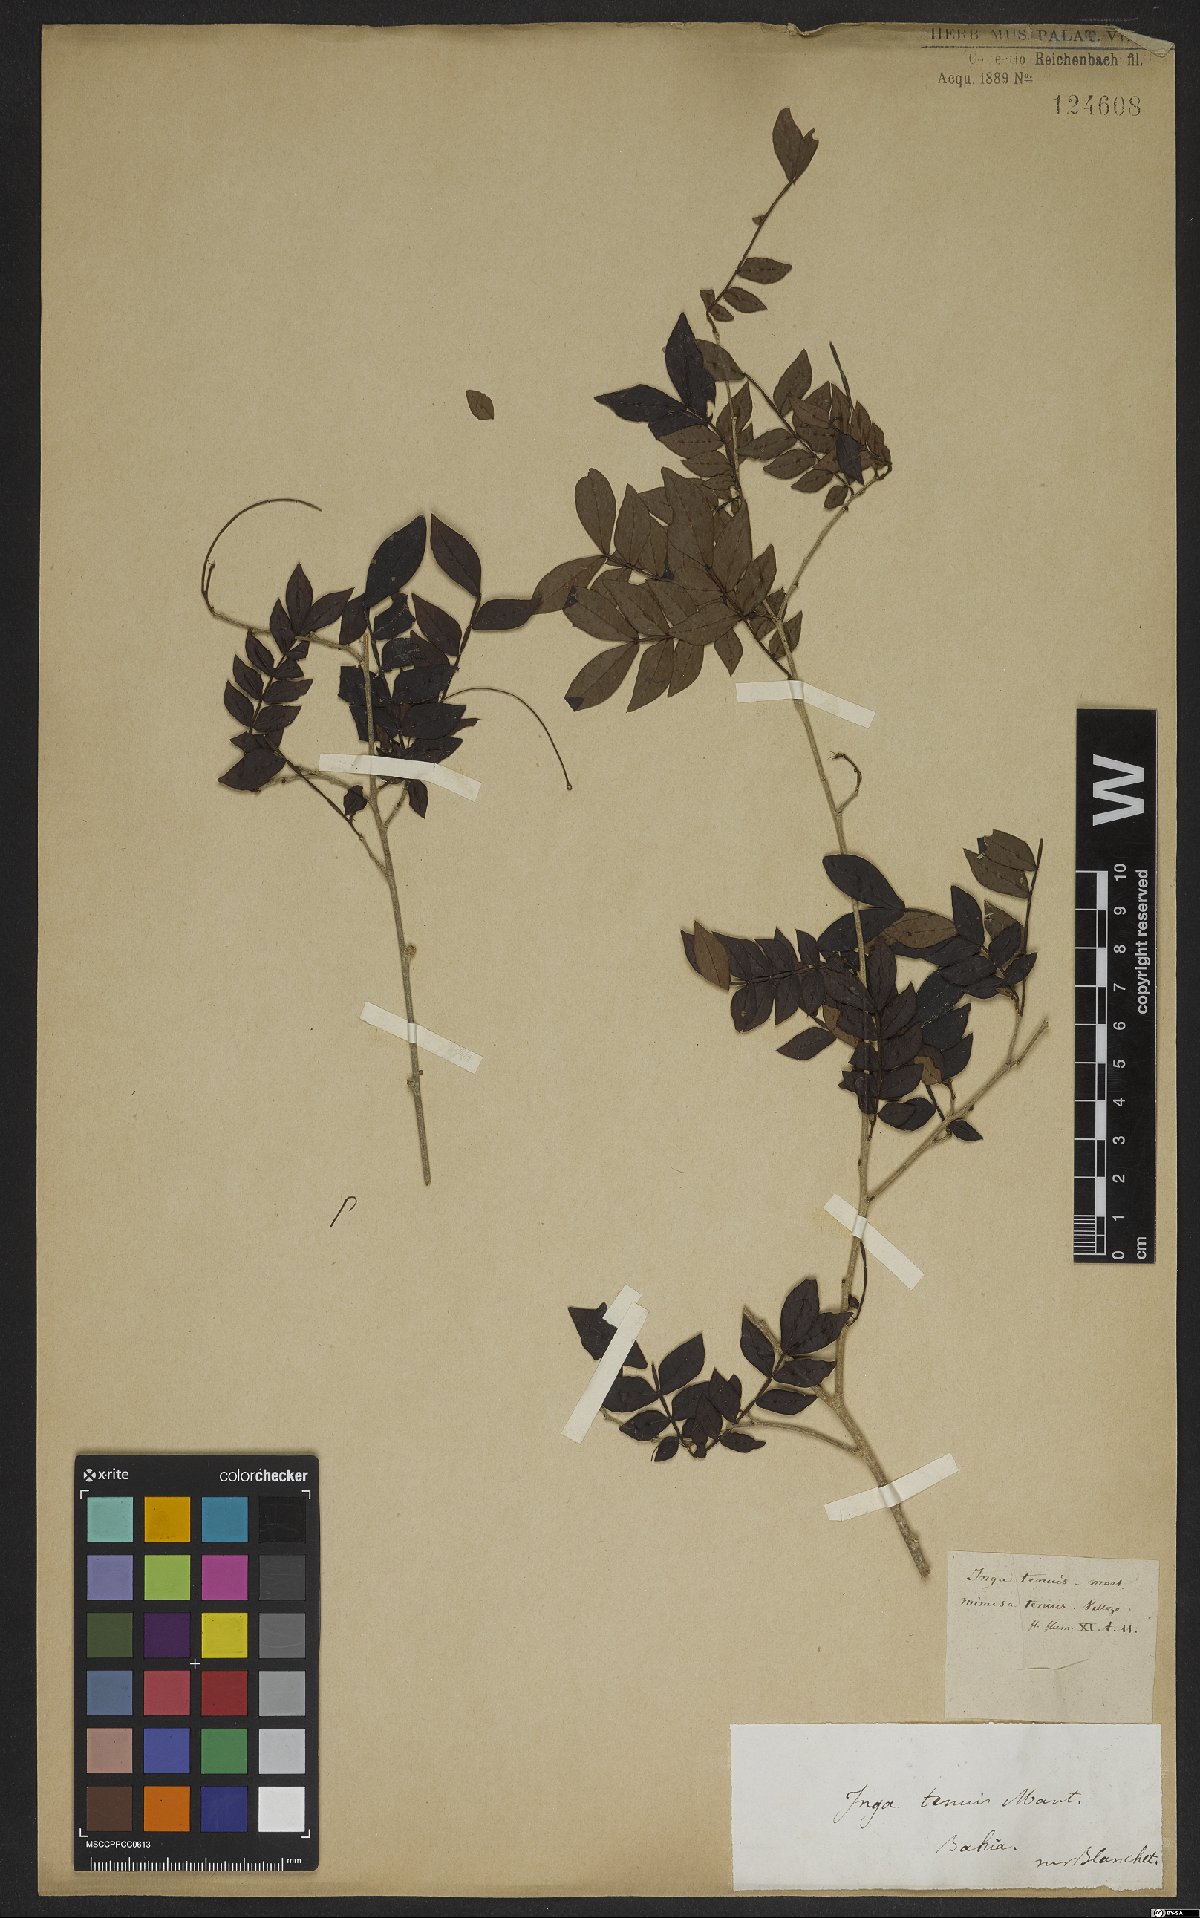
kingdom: Plantae
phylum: Tracheophyta
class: Magnoliopsida
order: Fabales
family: Fabaceae
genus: Inga
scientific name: Inga nutans
